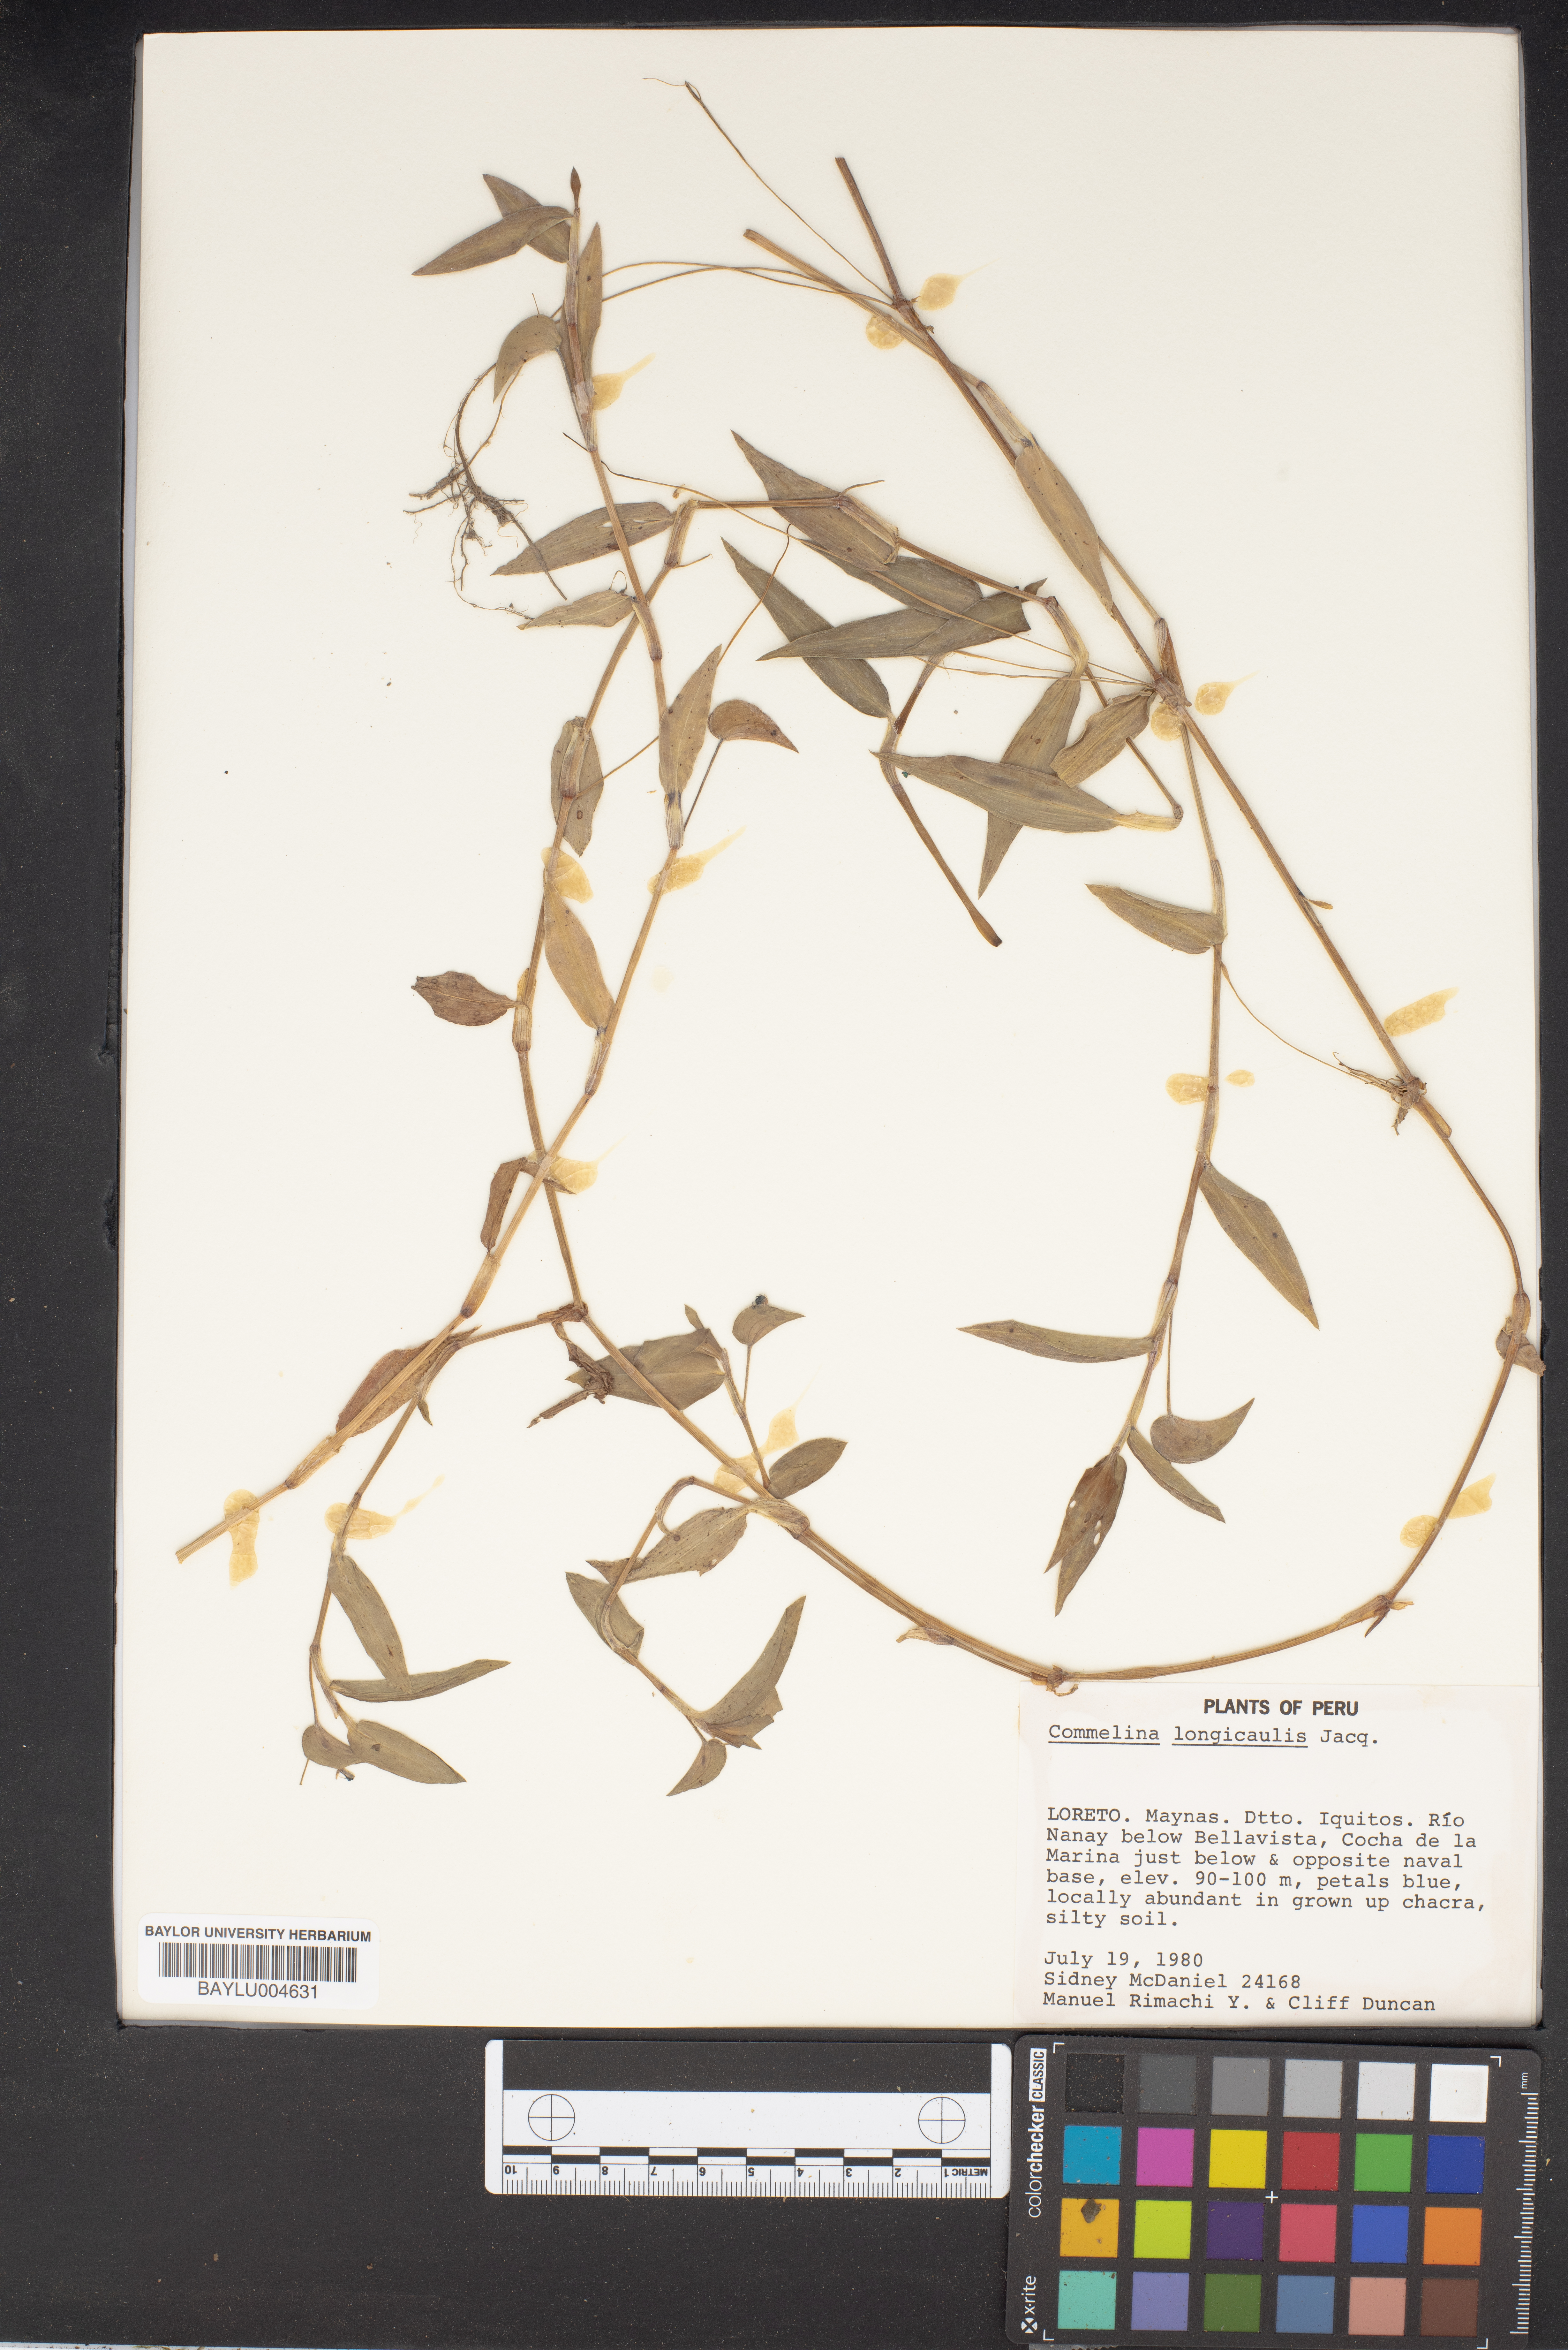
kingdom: Plantae
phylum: Tracheophyta
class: Liliopsida
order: Commelinales
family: Commelinaceae
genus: Commelina
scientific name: Commelina longicaulis
